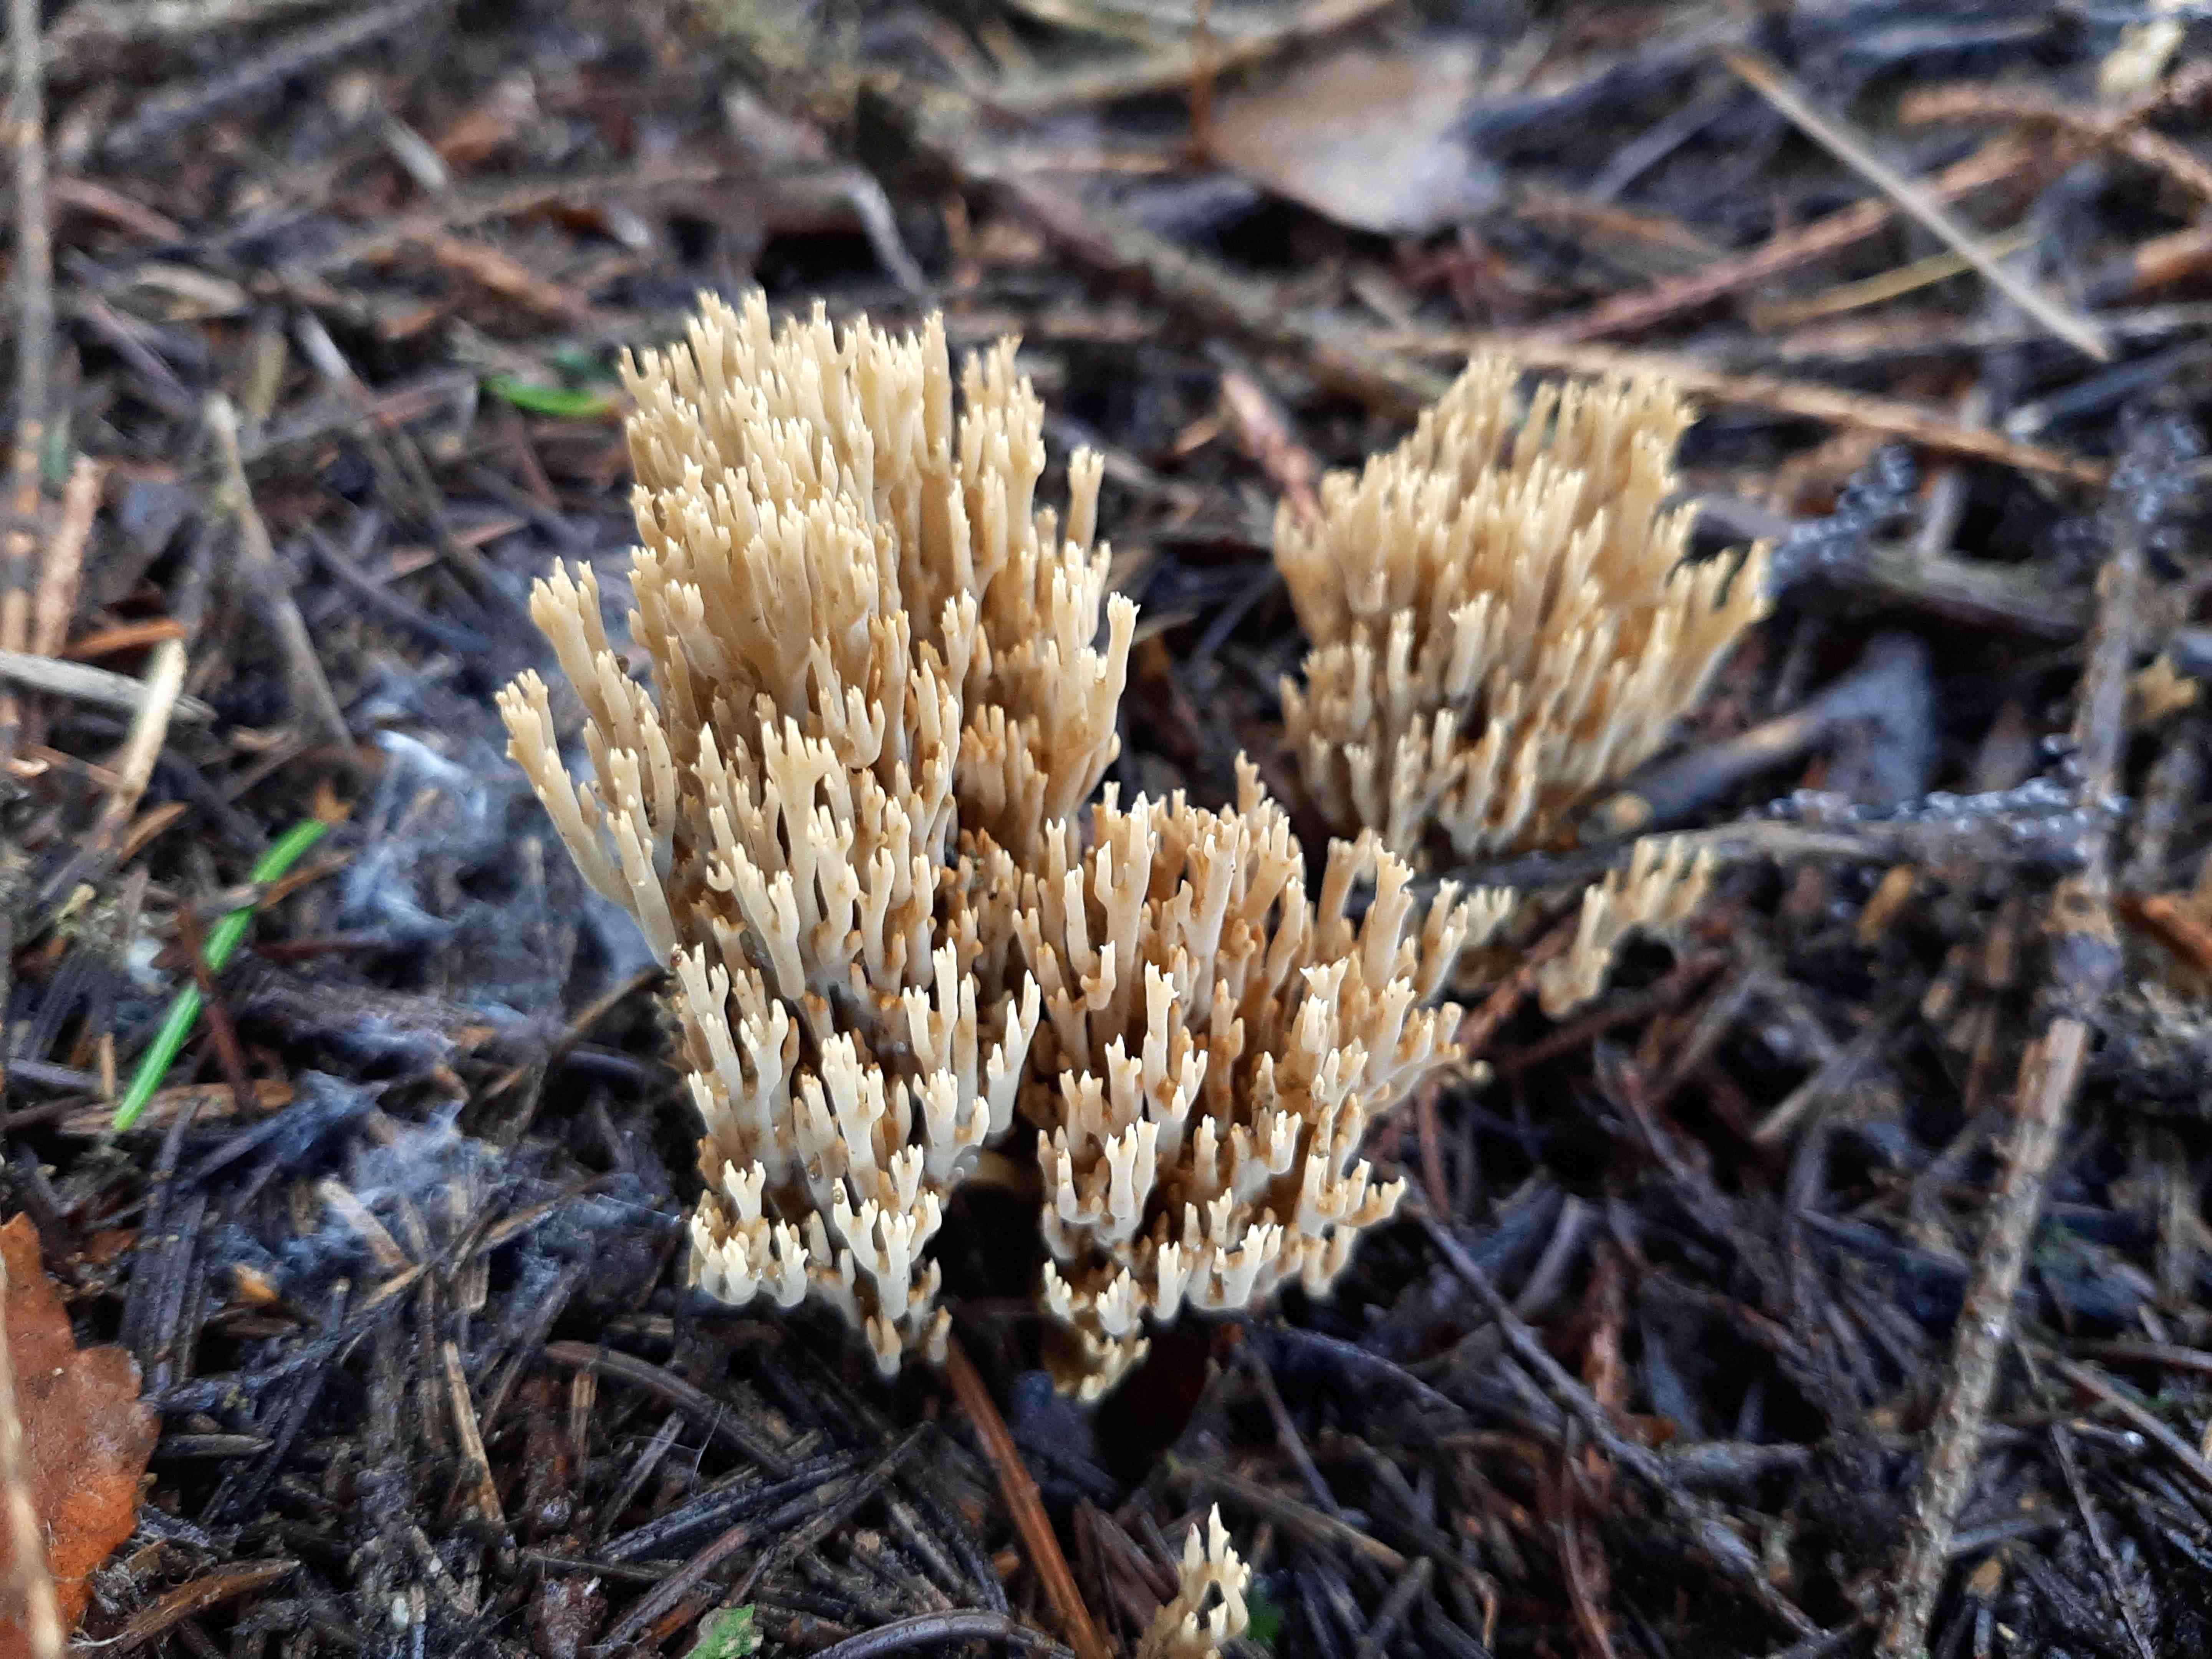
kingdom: Fungi
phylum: Basidiomycota
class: Agaricomycetes
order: Gomphales
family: Gomphaceae
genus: Phaeoclavulina
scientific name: Phaeoclavulina eumorpha
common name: gran-koralsvamp
